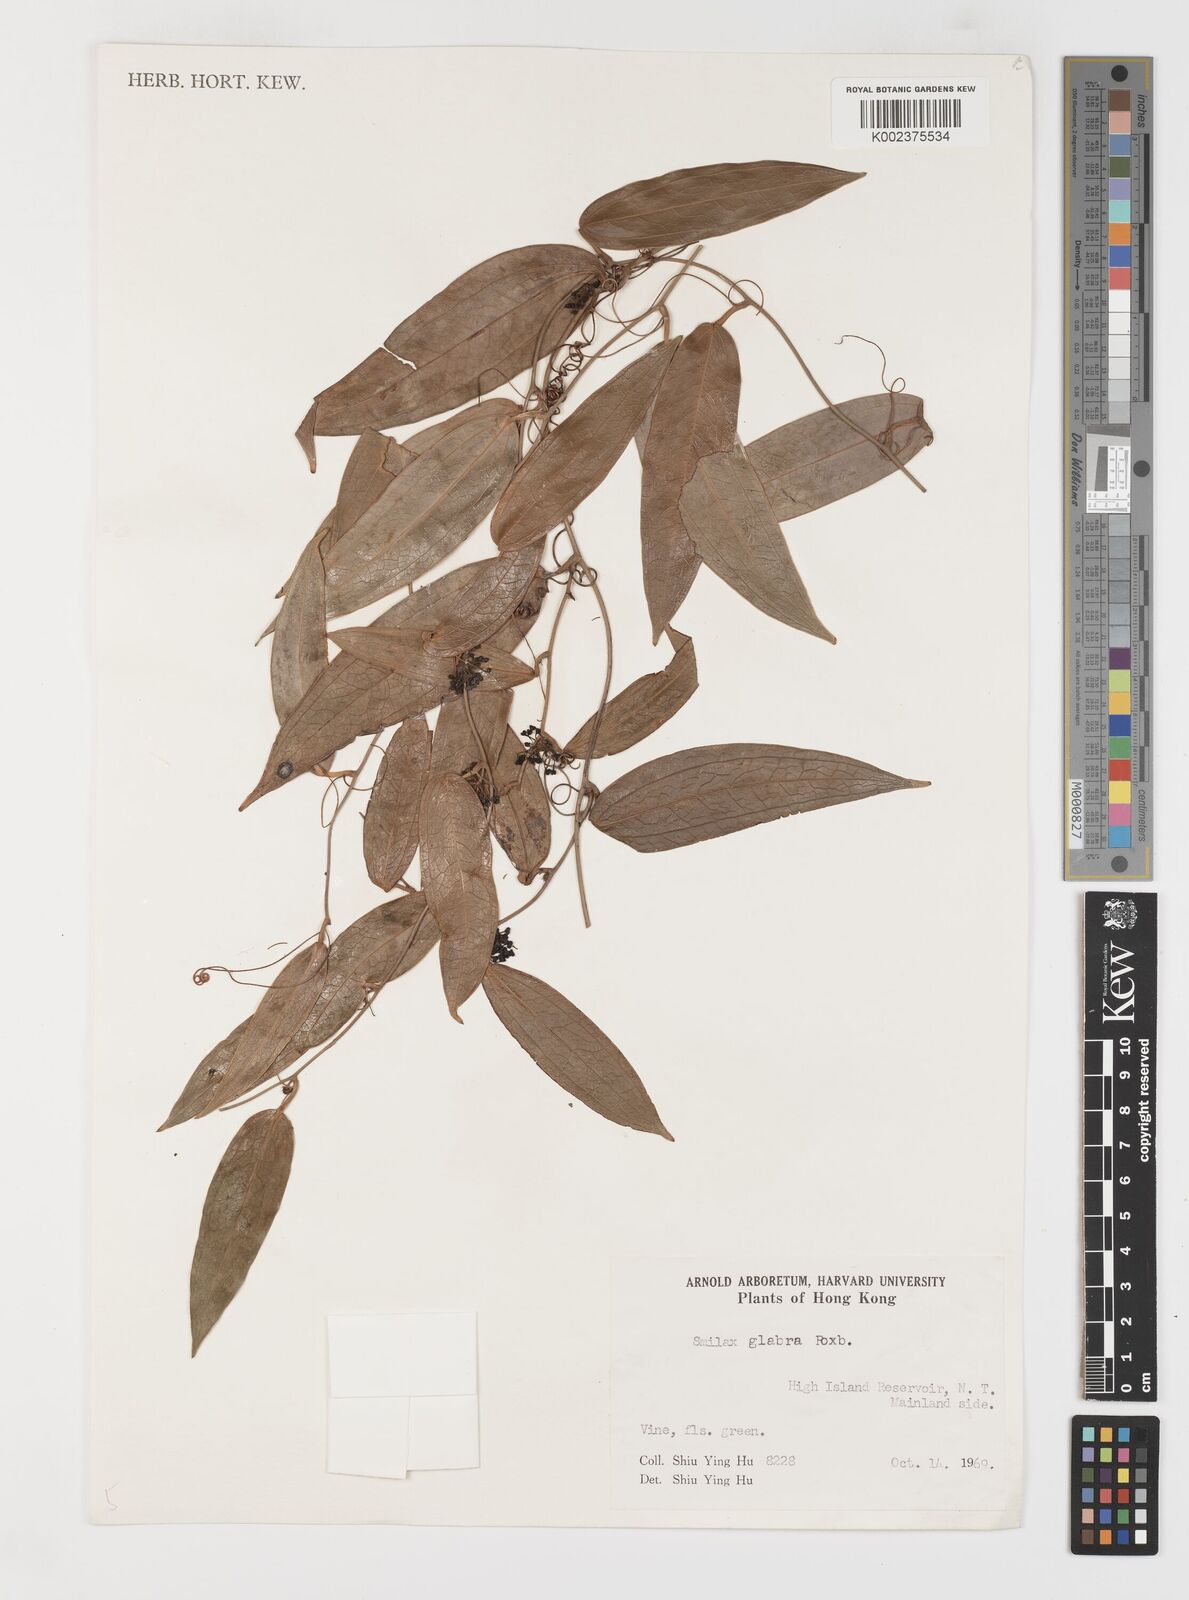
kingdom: Plantae
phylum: Tracheophyta
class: Liliopsida
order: Liliales
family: Smilacaceae
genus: Smilax
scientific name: Smilax laevis
